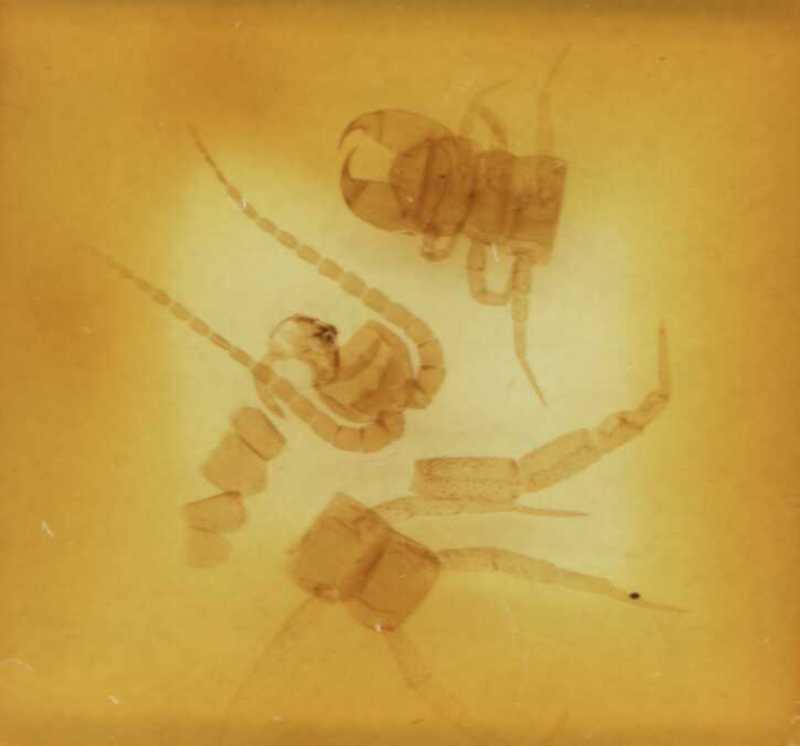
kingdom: Animalia
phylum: Arthropoda
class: Chilopoda
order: Scolopendromorpha
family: Cryptopidae
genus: Cryptops
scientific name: Cryptops umbricus
